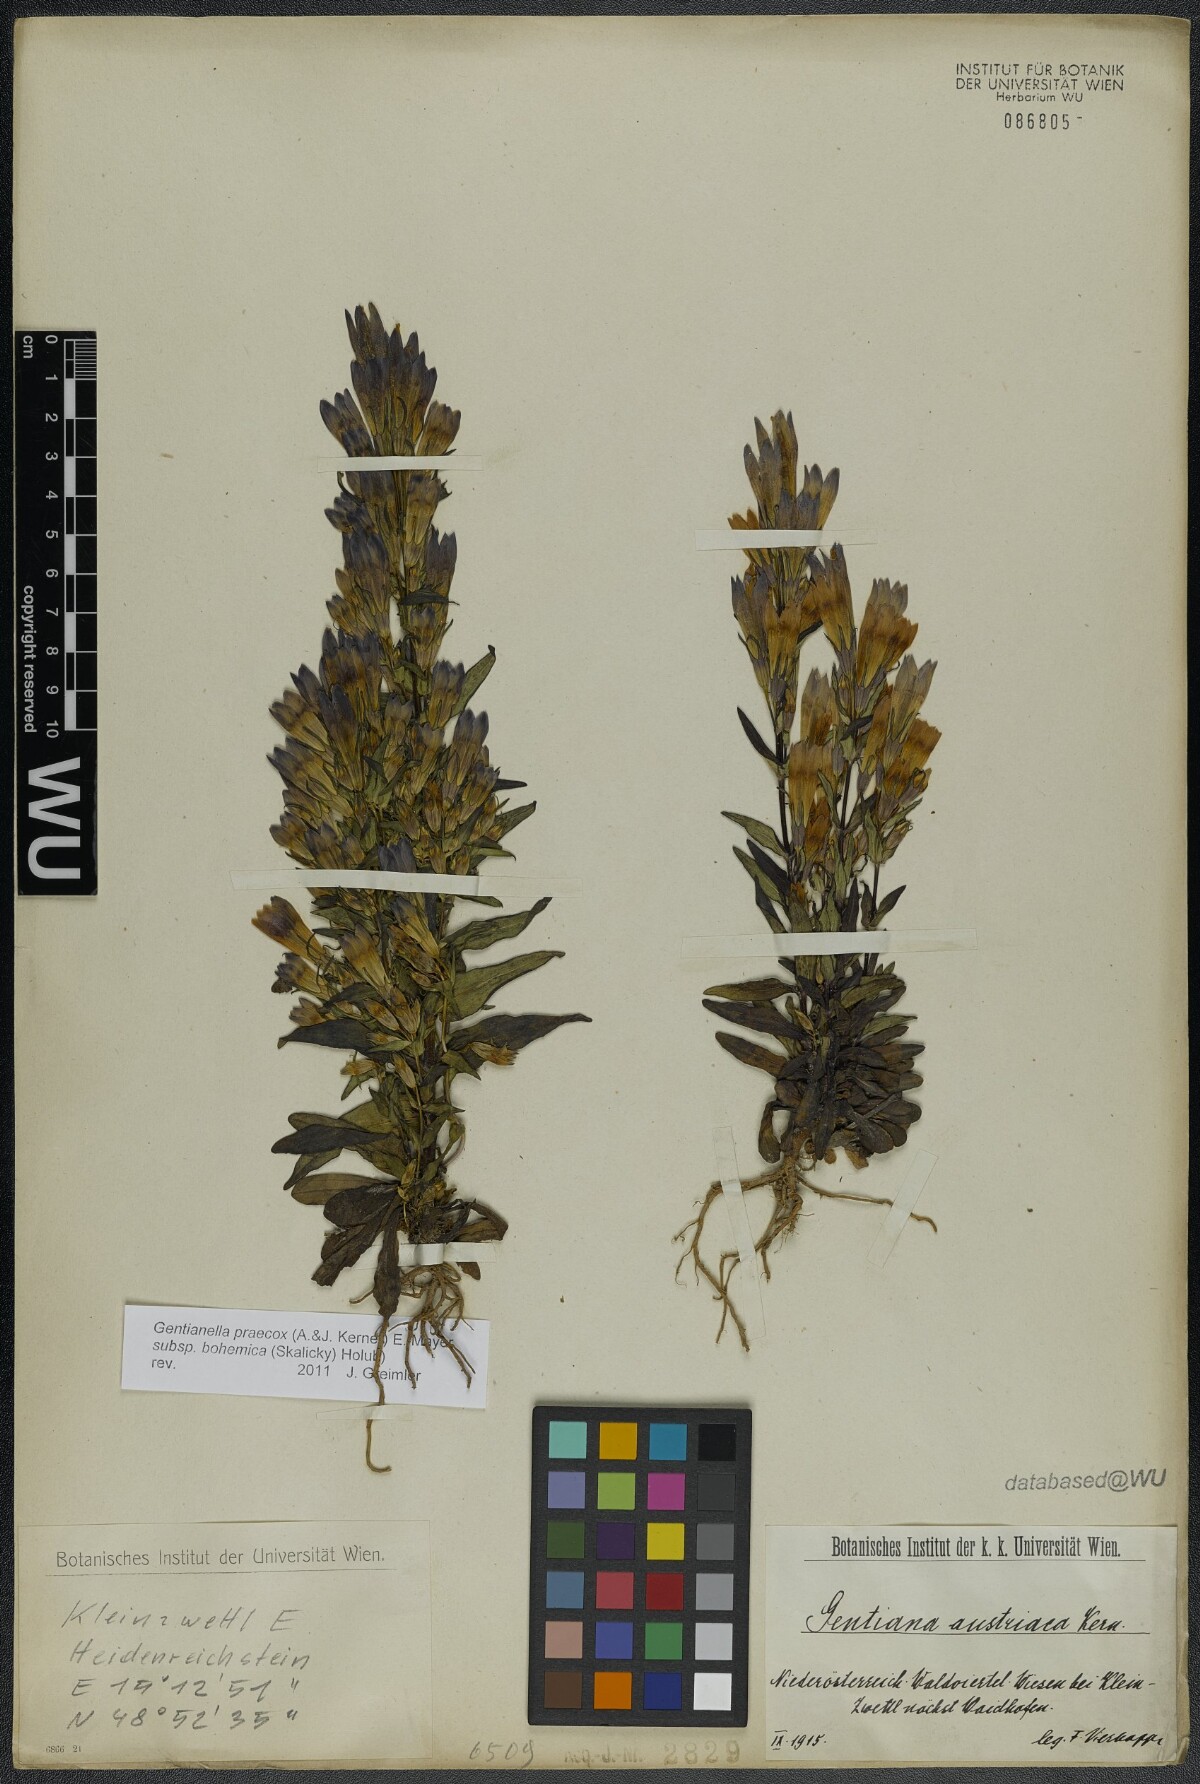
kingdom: Plantae
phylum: Tracheophyta
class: Magnoliopsida
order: Gentianales
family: Gentianaceae
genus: Gentianella
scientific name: Gentianella praecox
